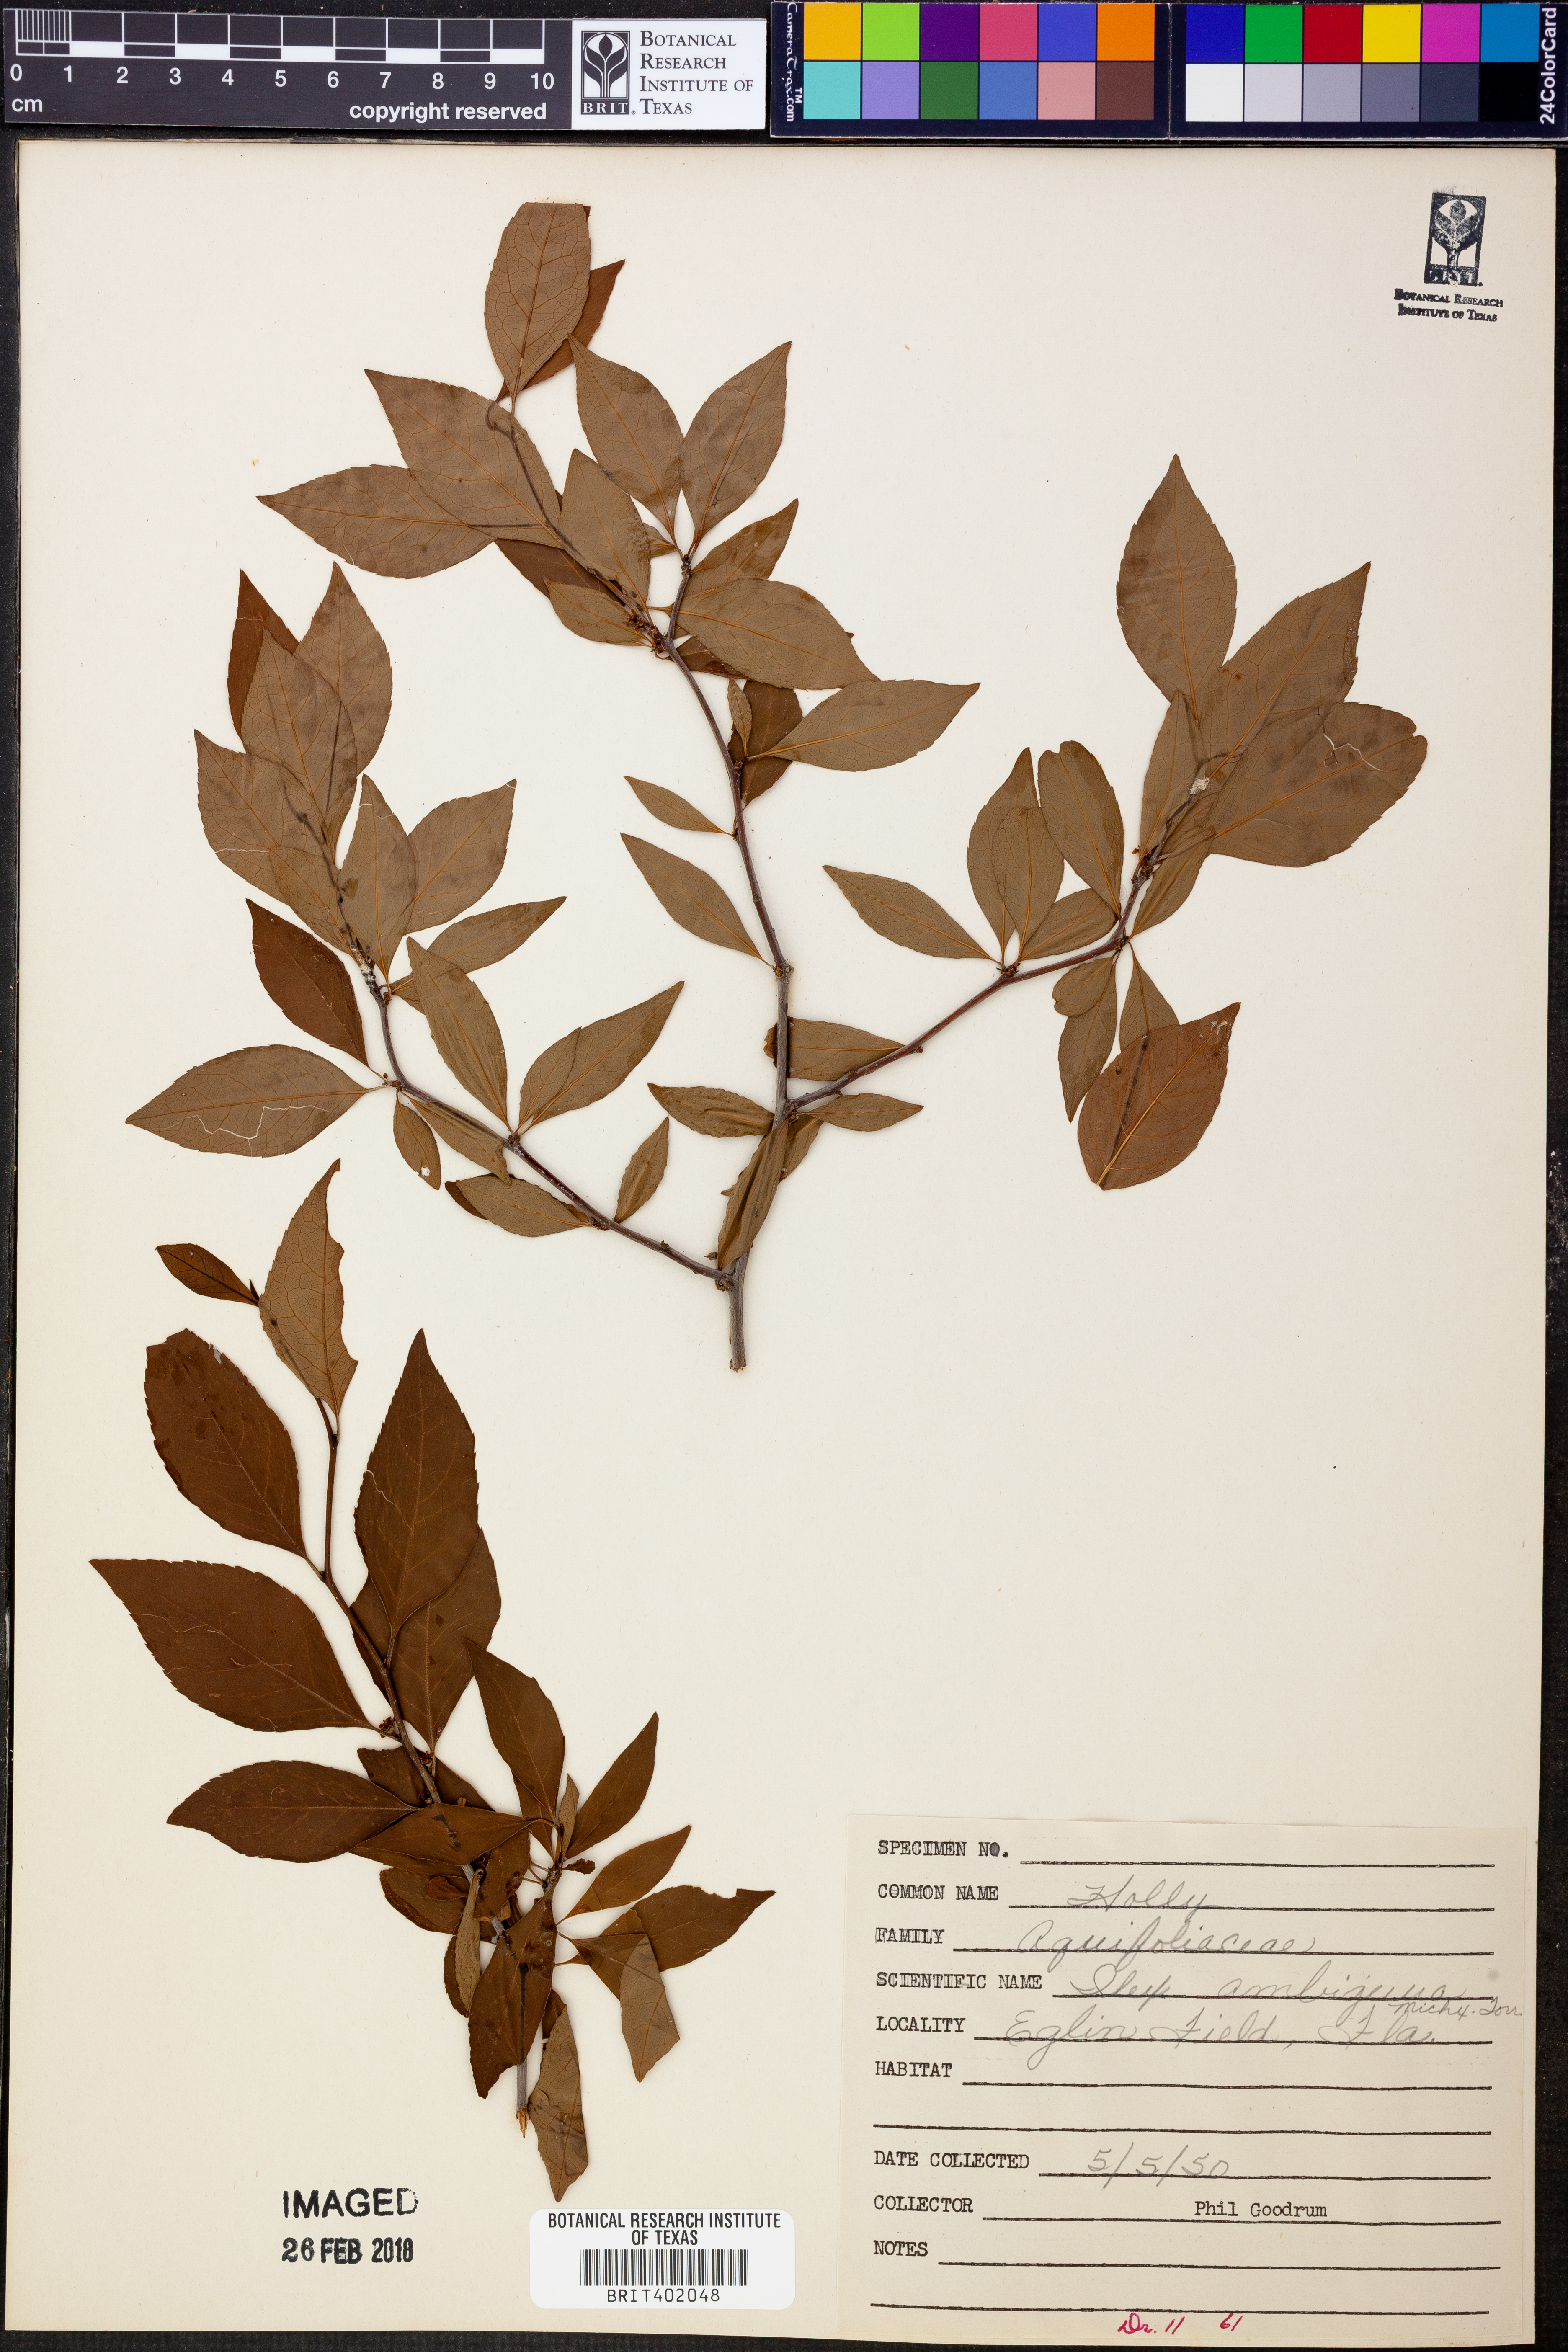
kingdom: Plantae
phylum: Tracheophyta
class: Magnoliopsida
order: Aquifoliales
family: Aquifoliaceae
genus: Ilex
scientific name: Ilex ambigua
